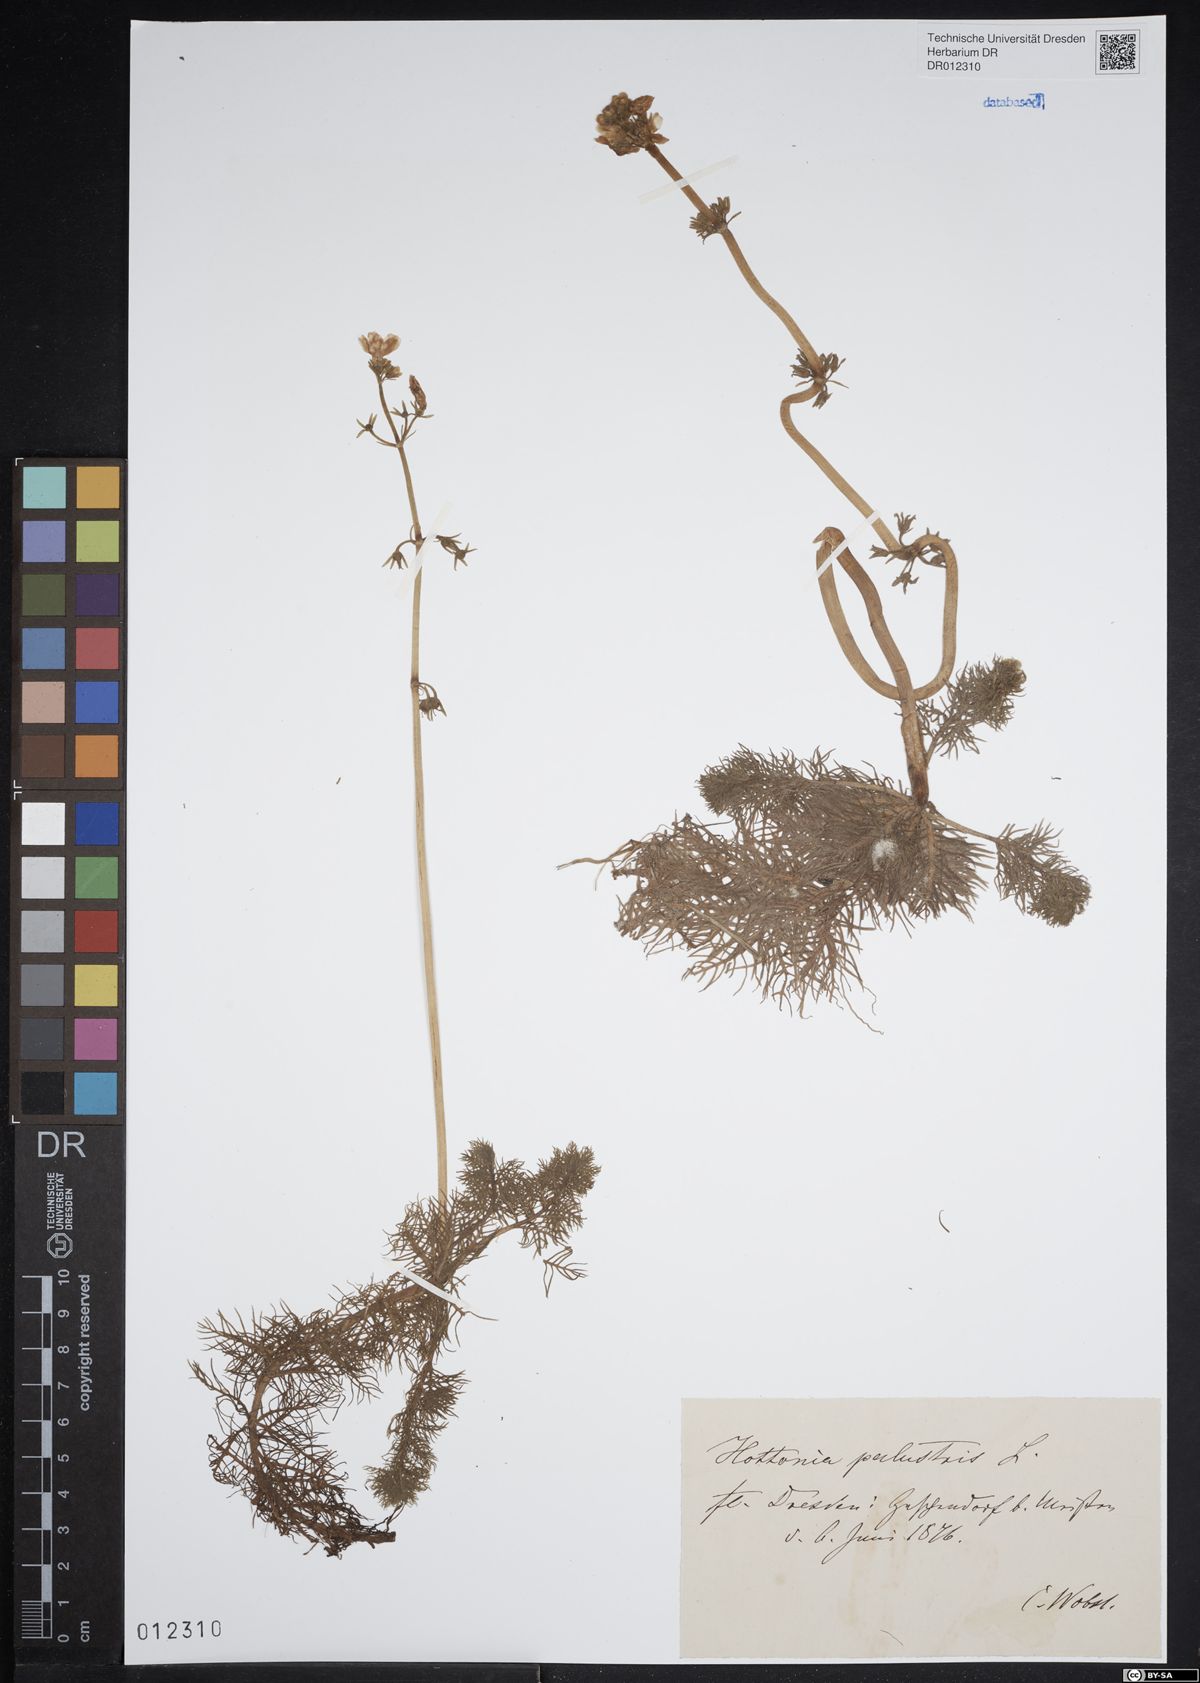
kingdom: Plantae
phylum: Tracheophyta
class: Magnoliopsida
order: Ericales
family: Primulaceae
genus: Hottonia
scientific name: Hottonia palustris
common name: Water-violet
